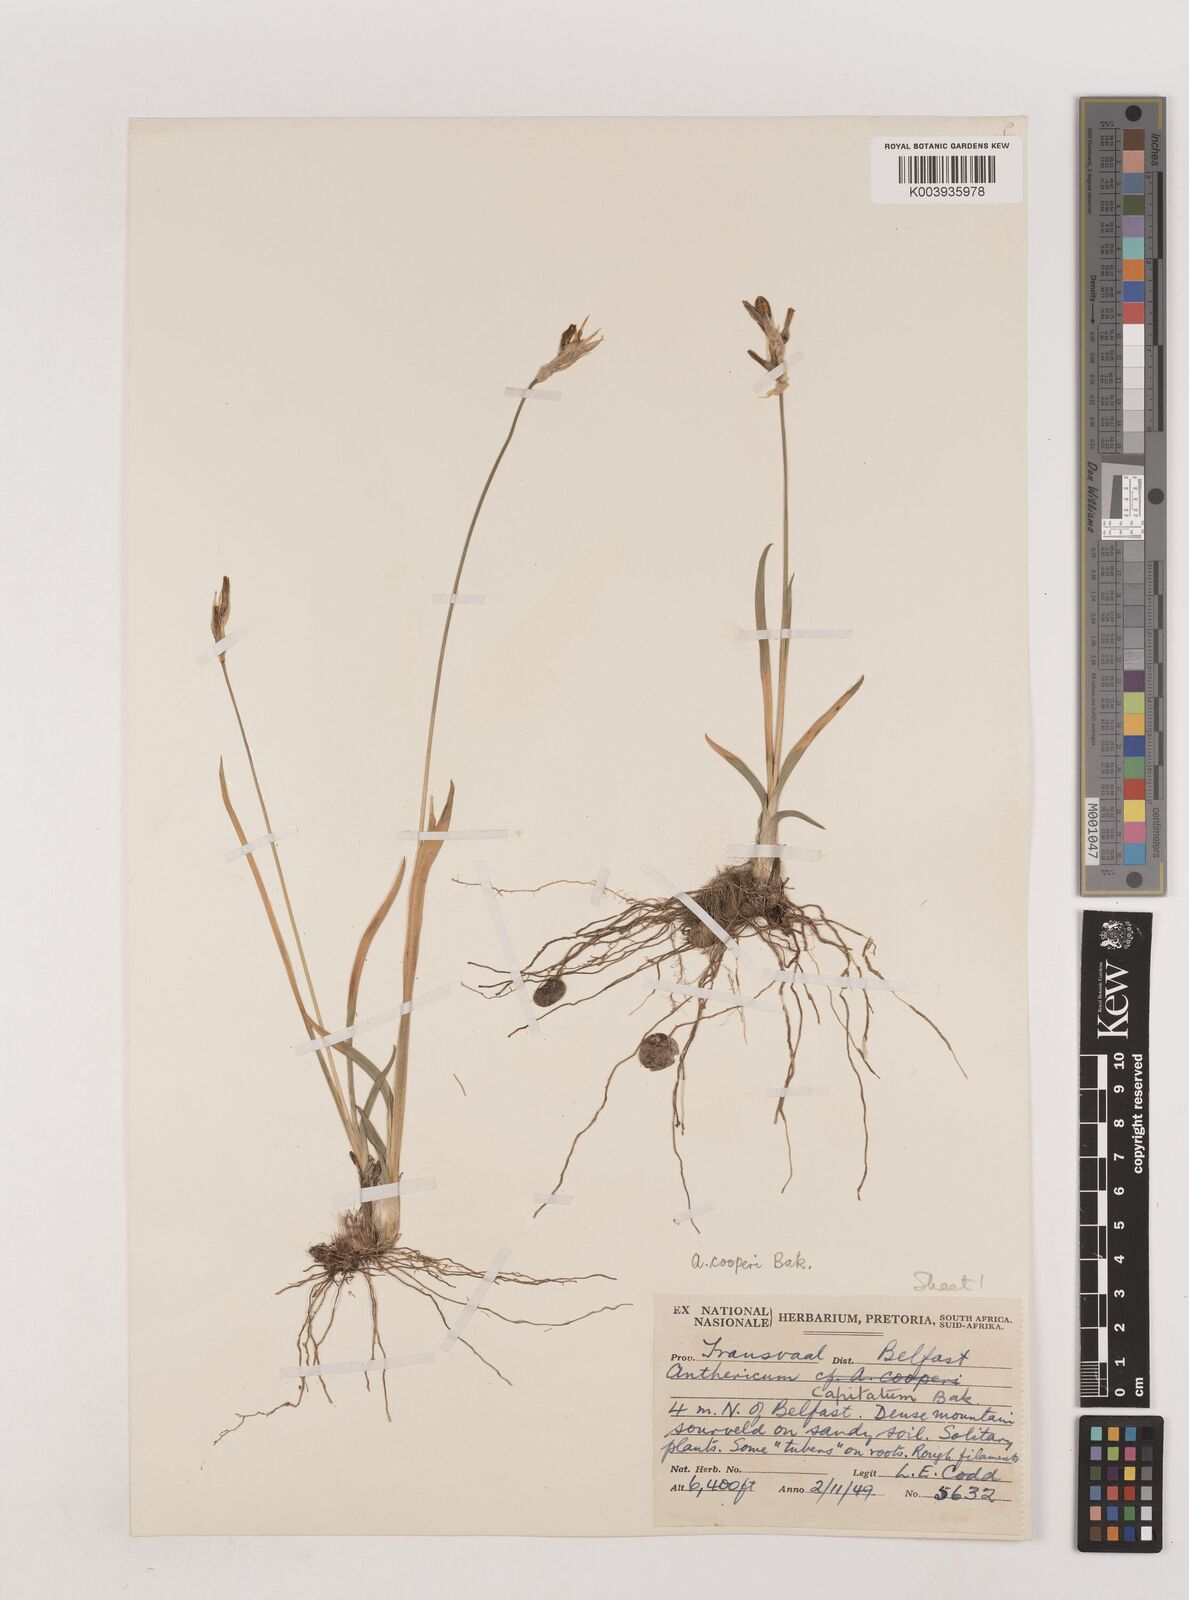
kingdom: Plantae
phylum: Tracheophyta
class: Liliopsida
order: Asparagales
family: Asparagaceae
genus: Chlorophytum
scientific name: Chlorophytum cooperi
